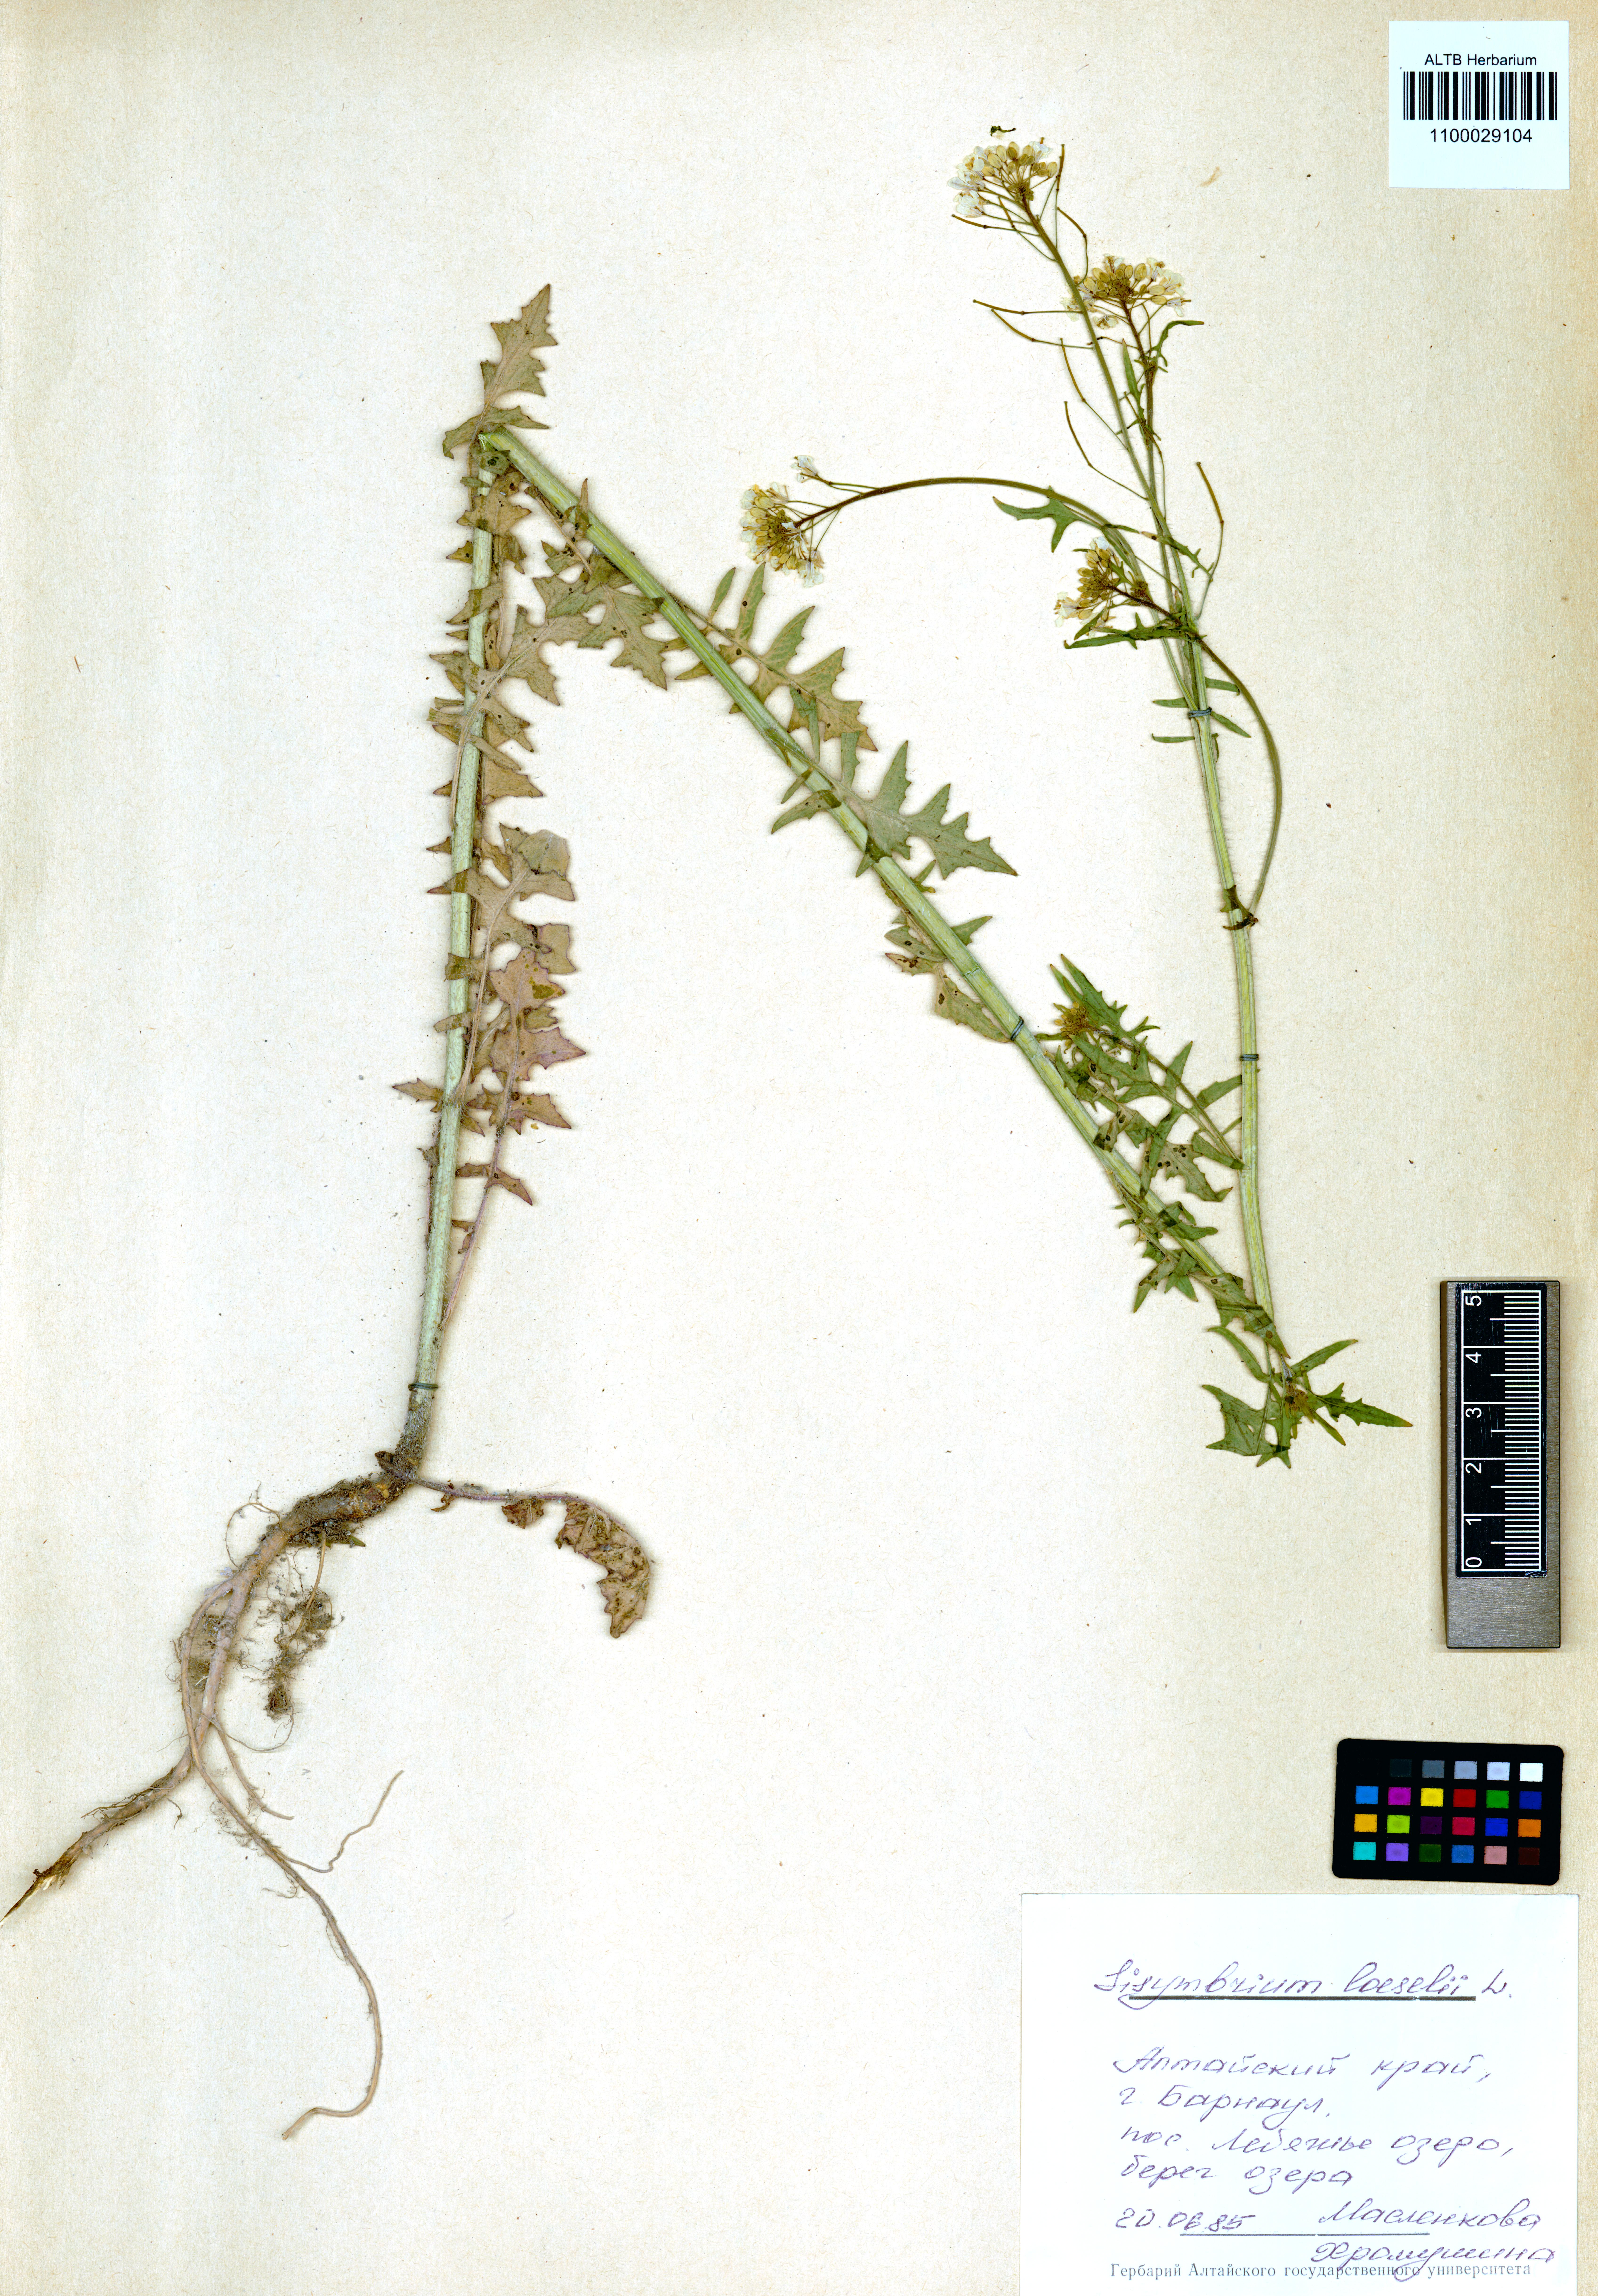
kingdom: Plantae
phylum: Tracheophyta
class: Magnoliopsida
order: Brassicales
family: Brassicaceae
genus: Sisymbrium
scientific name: Sisymbrium loeselii
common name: False london-rocket
